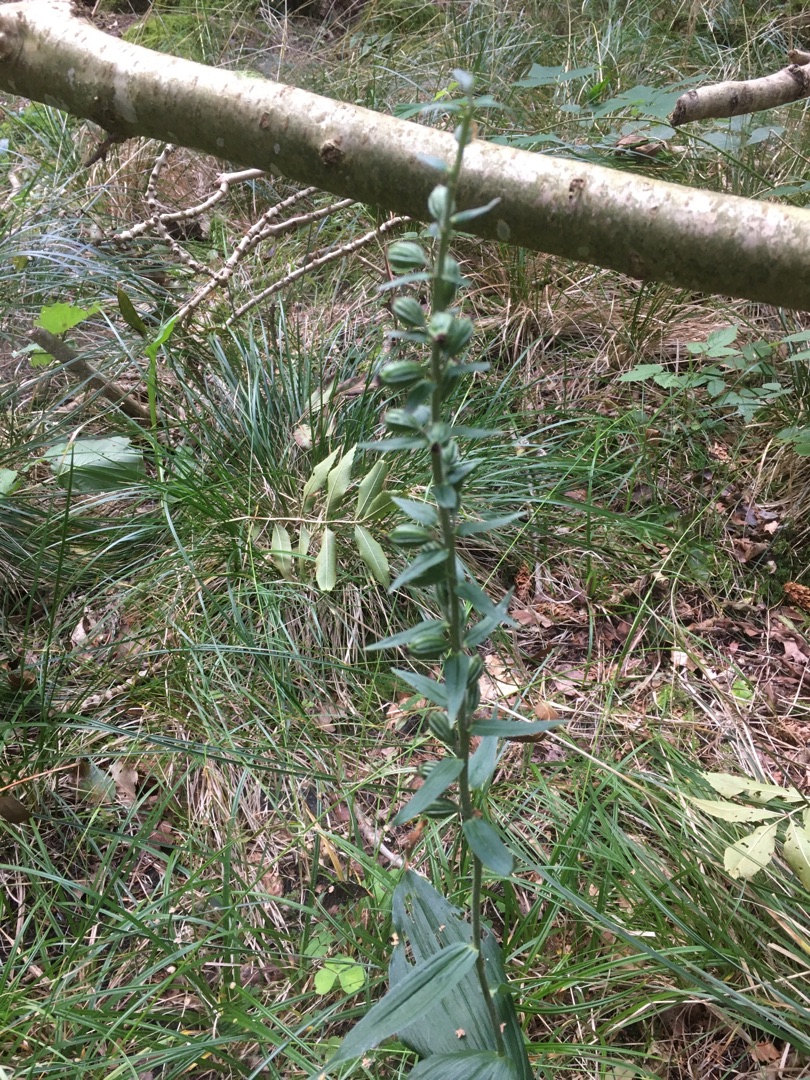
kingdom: Plantae
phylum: Tracheophyta
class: Liliopsida
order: Asparagales
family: Orchidaceae
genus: Epipactis
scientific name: Epipactis helleborine
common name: Skov-hullæbe
